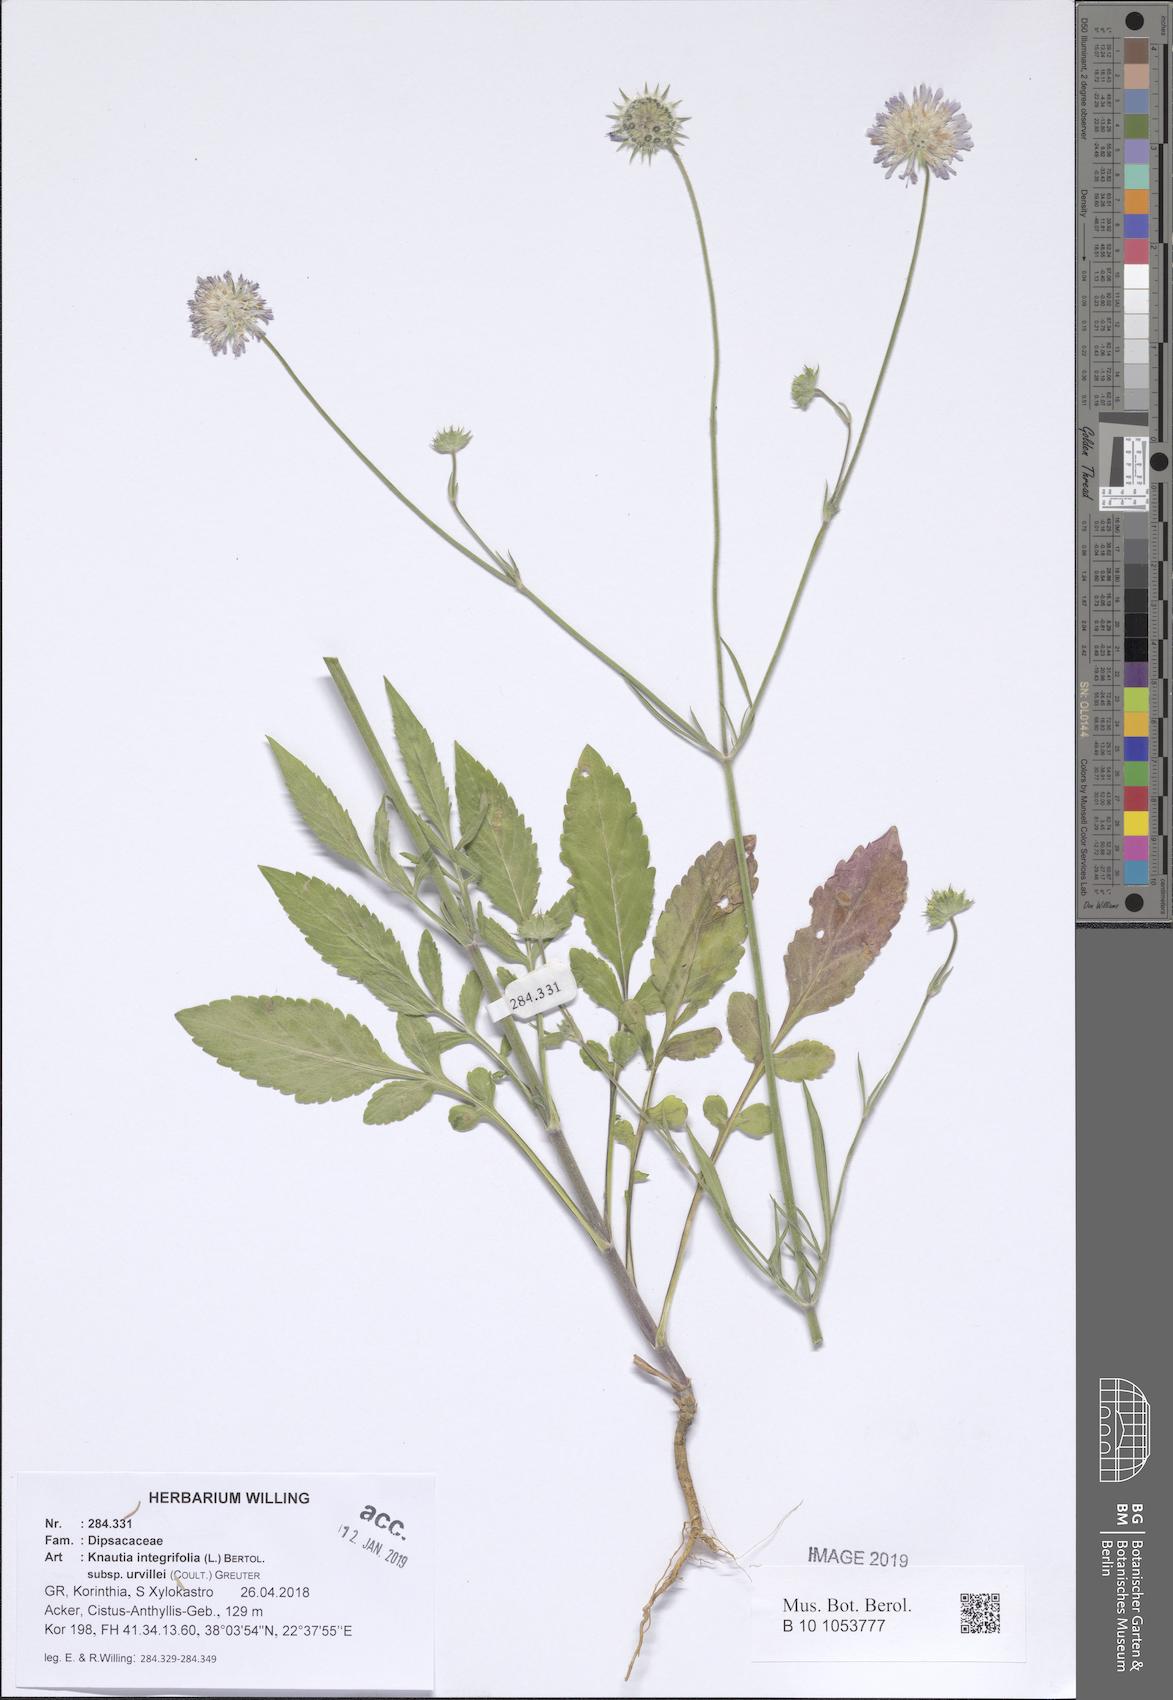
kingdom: Plantae
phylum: Tracheophyta
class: Magnoliopsida
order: Dipsacales
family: Caprifoliaceae
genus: Knautia
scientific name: Knautia integrifolia
